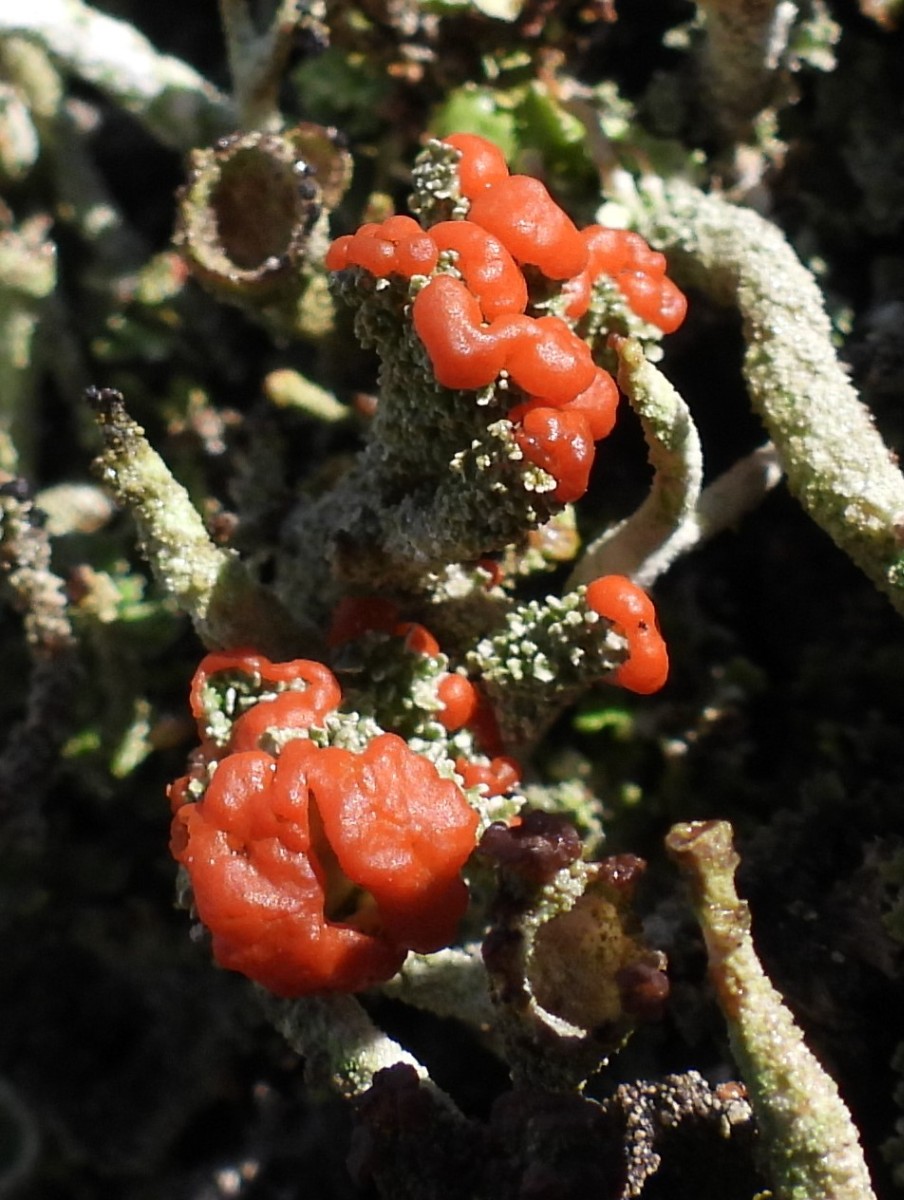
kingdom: Fungi
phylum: Ascomycota
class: Lecanoromycetes
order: Lecanorales
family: Cladoniaceae
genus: Cladonia
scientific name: Cladonia floerkeana
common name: lakrød bægerlav
